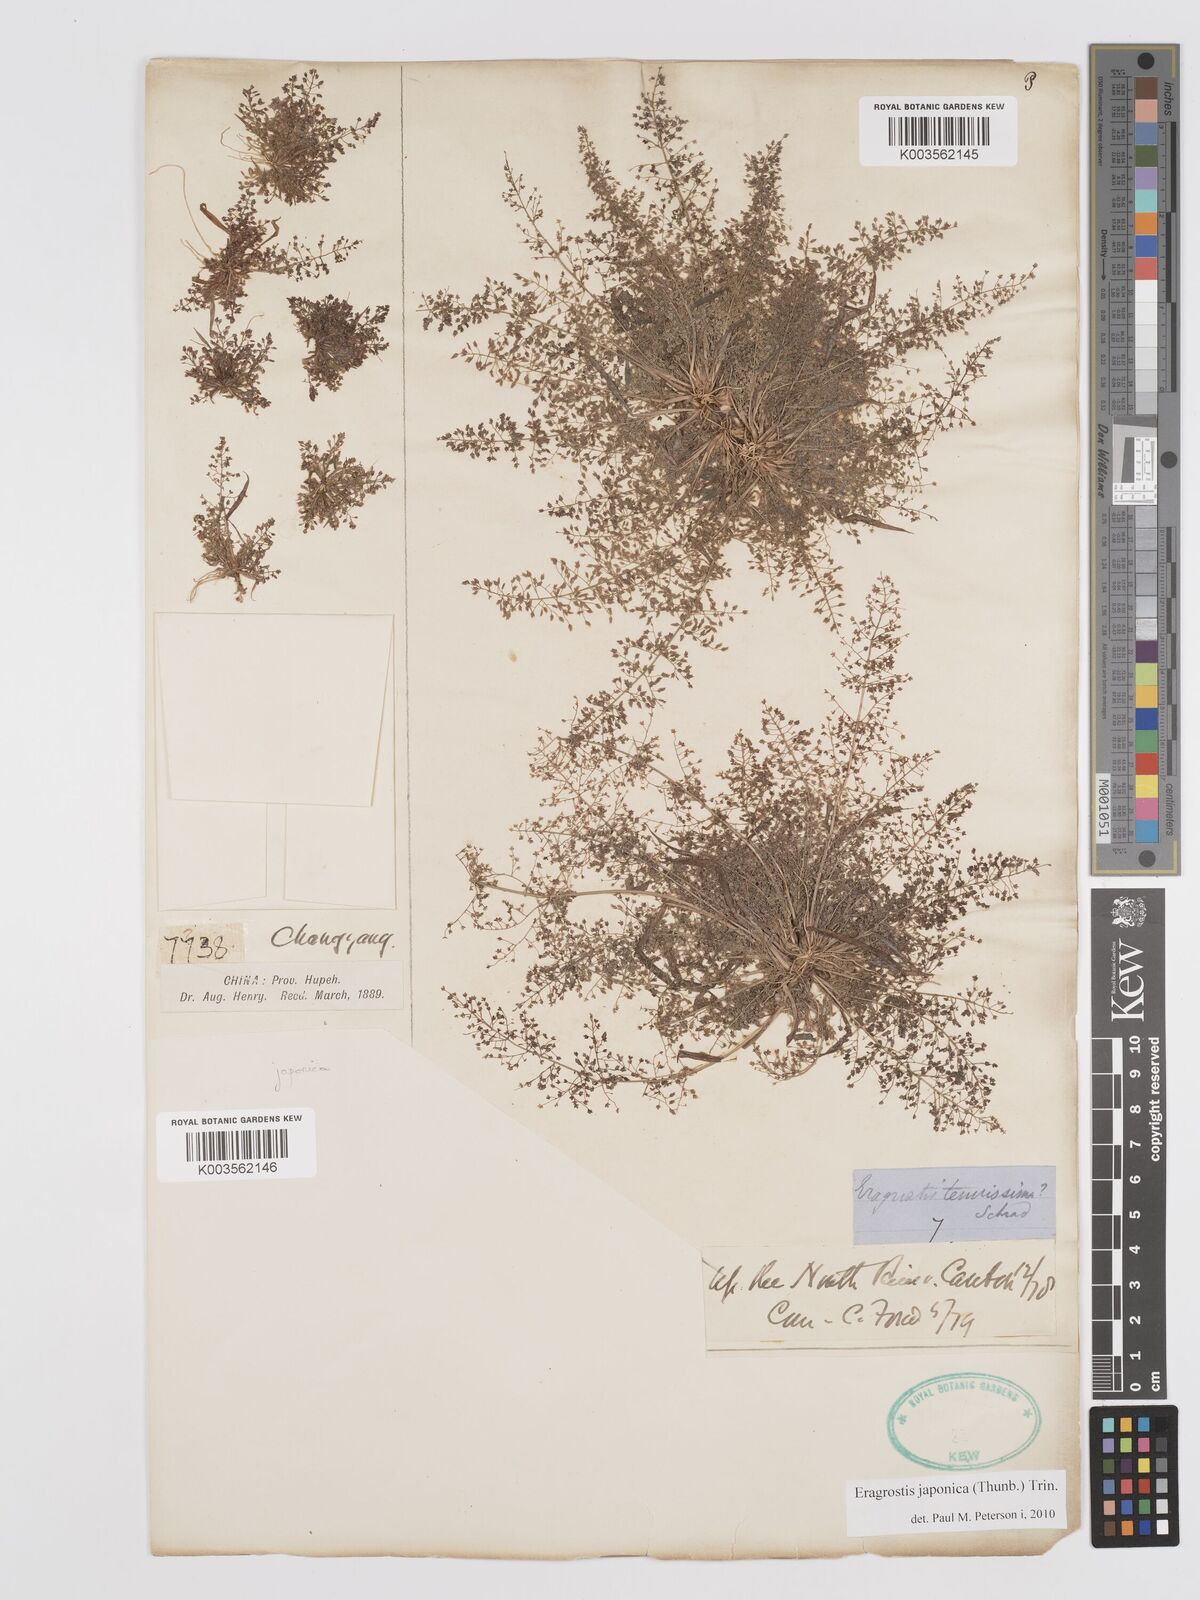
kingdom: Plantae
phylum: Tracheophyta
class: Liliopsida
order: Poales
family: Poaceae
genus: Eragrostis
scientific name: Eragrostis japonica
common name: Pond lovegrass
